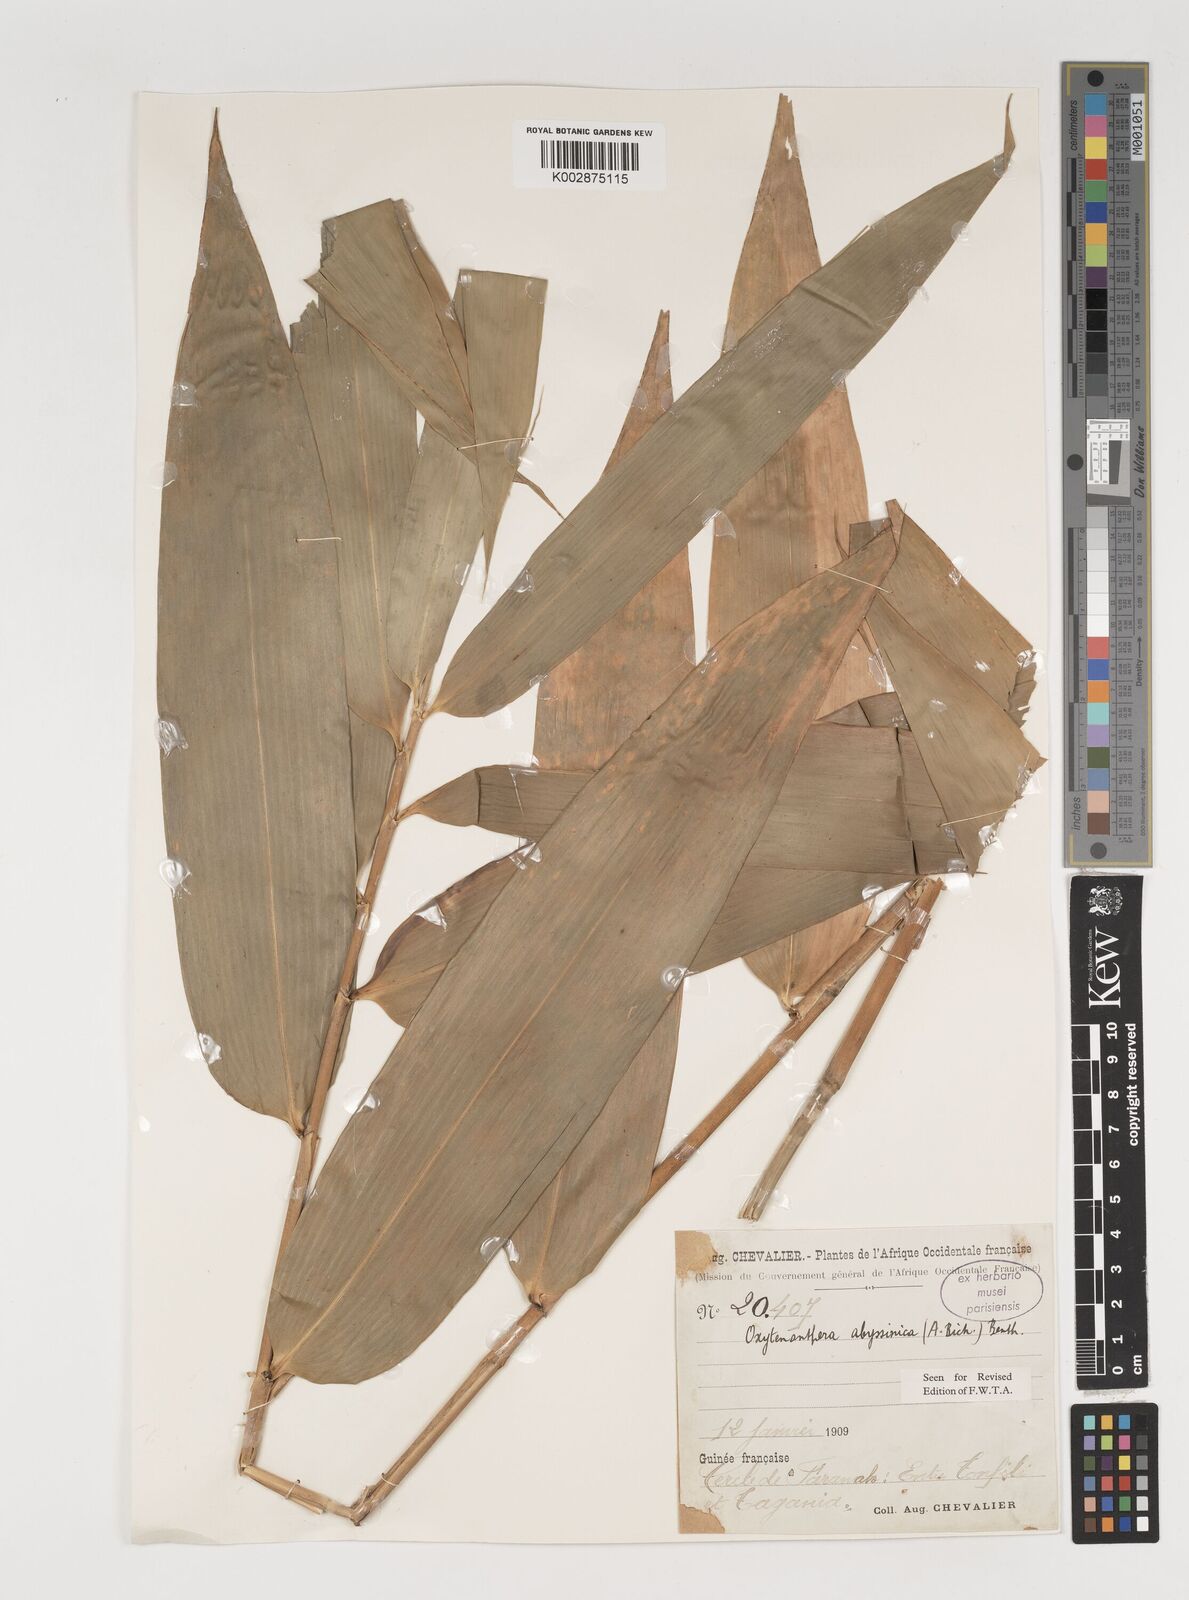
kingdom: Plantae
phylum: Tracheophyta
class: Liliopsida
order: Poales
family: Poaceae
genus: Oxytenanthera
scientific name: Oxytenanthera abyssinica
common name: Wine bamboo
